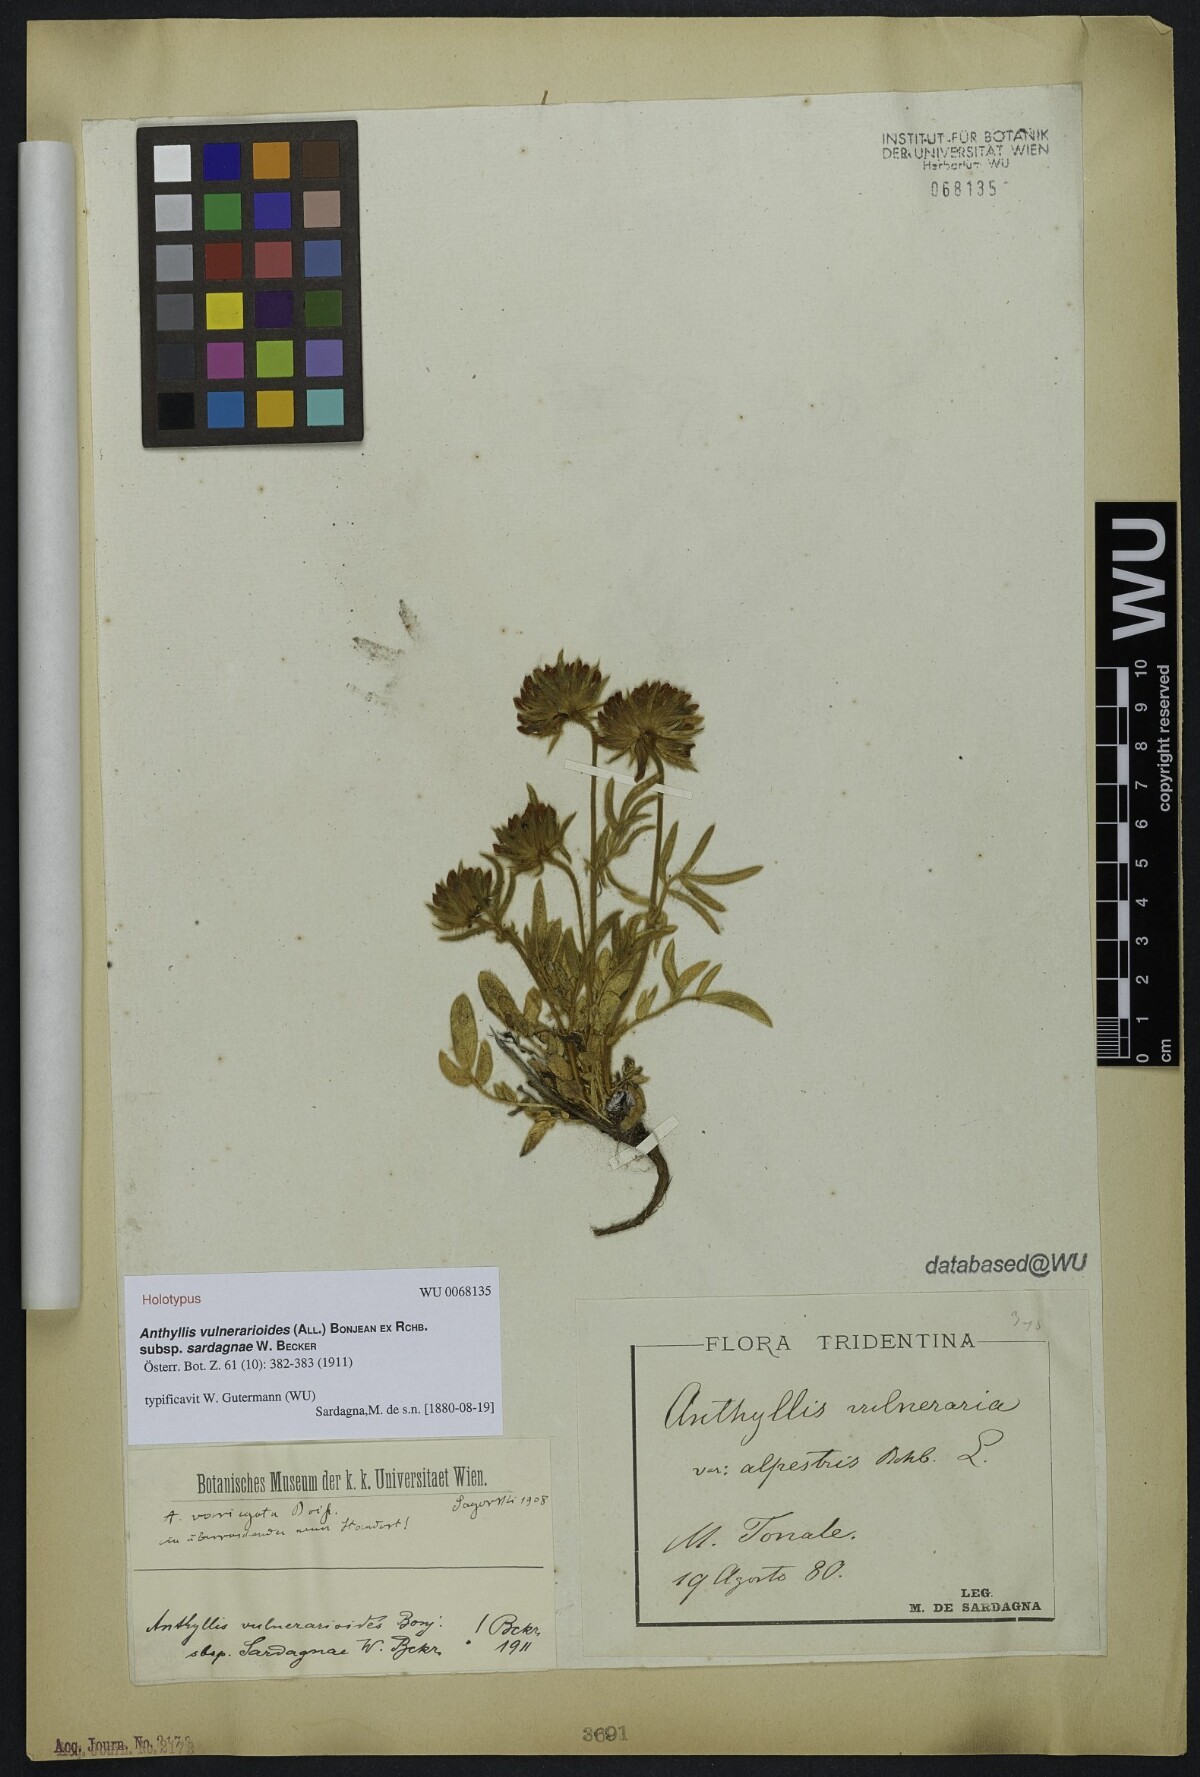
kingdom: Plantae
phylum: Tracheophyta
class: Magnoliopsida
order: Fabales
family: Fabaceae
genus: Anthyllis
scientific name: Anthyllis vulneraria
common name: Kidney vetch
